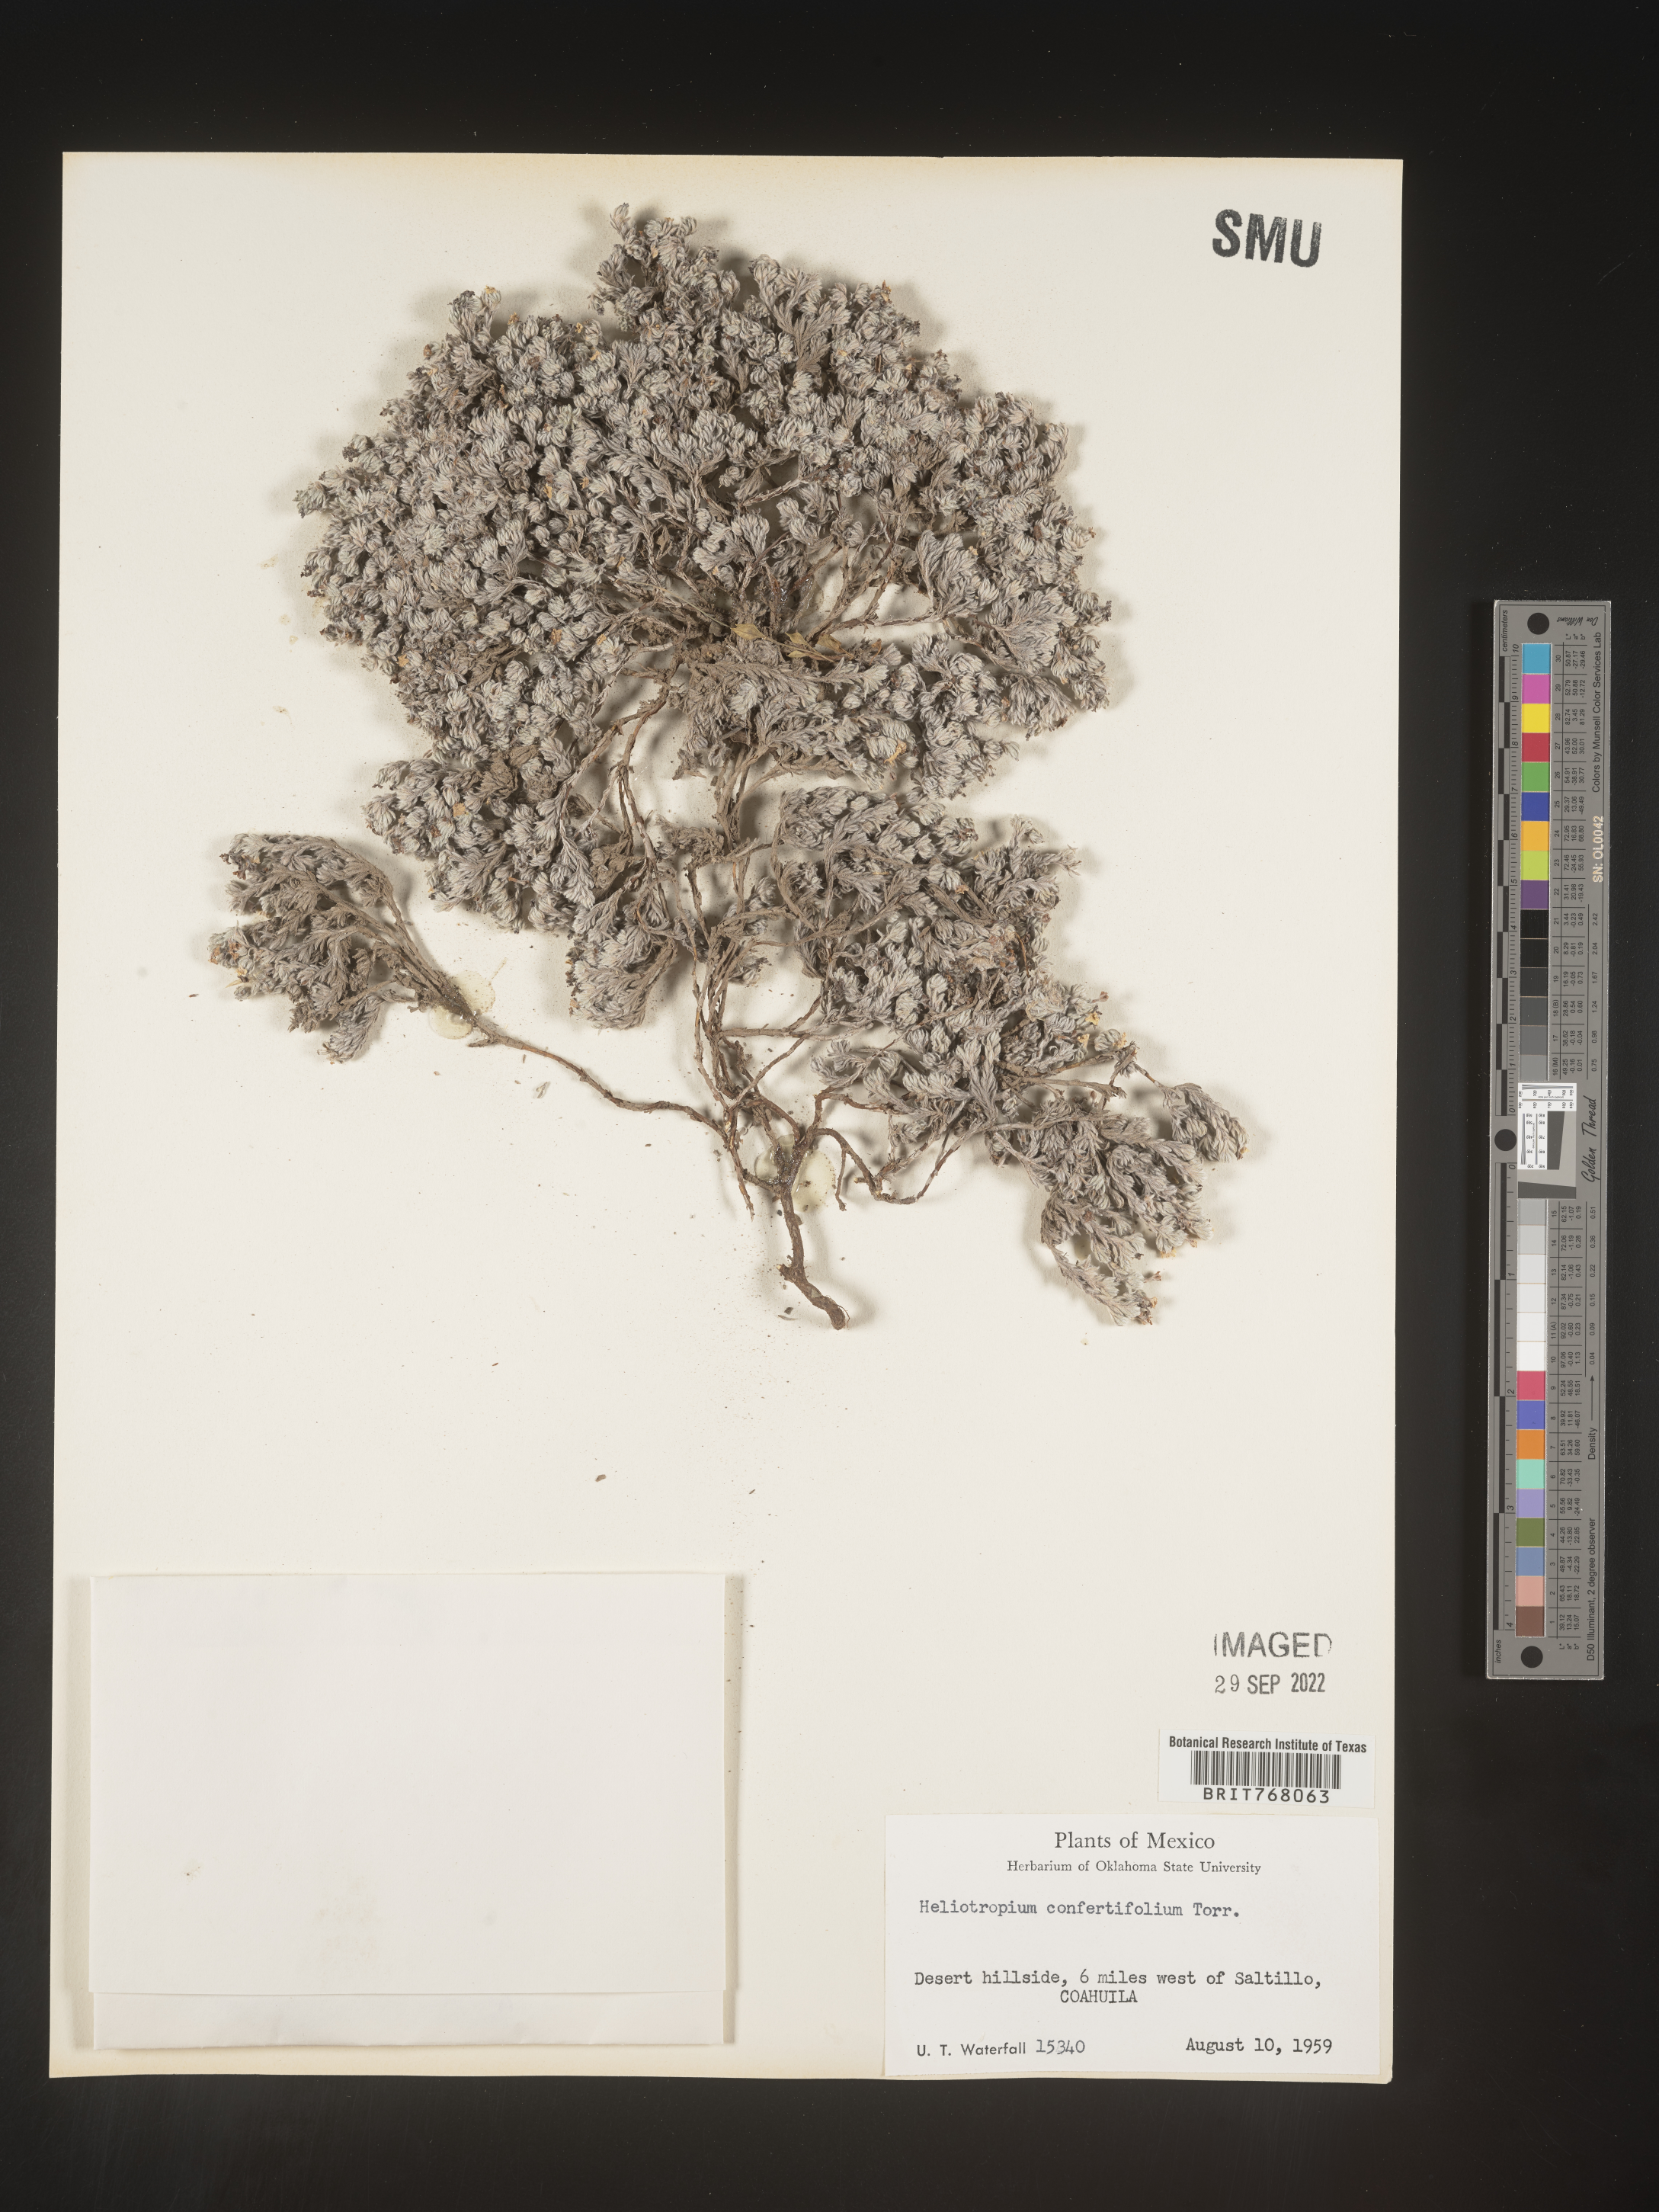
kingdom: Plantae
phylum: Tracheophyta
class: Magnoliopsida
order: Boraginales
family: Heliotropiaceae
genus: Heliotropium
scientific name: Heliotropium
